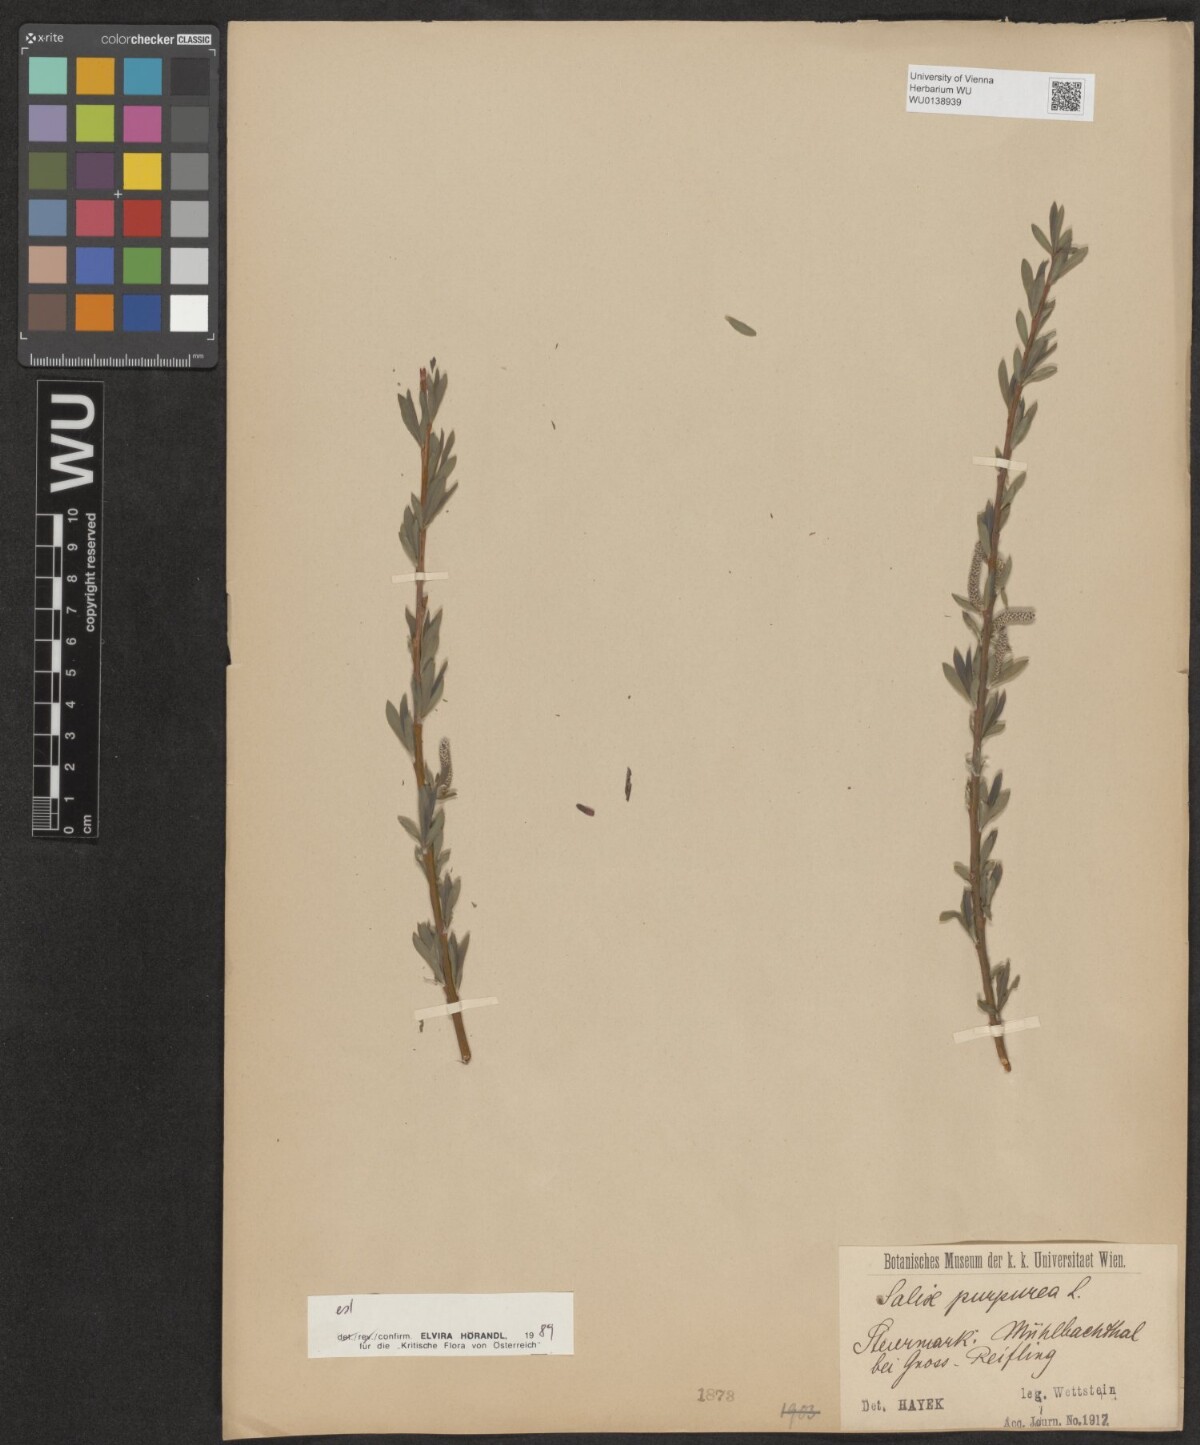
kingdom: Plantae
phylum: Tracheophyta
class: Magnoliopsida
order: Malpighiales
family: Salicaceae
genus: Salix
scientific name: Salix purpurea
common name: Purple willow
